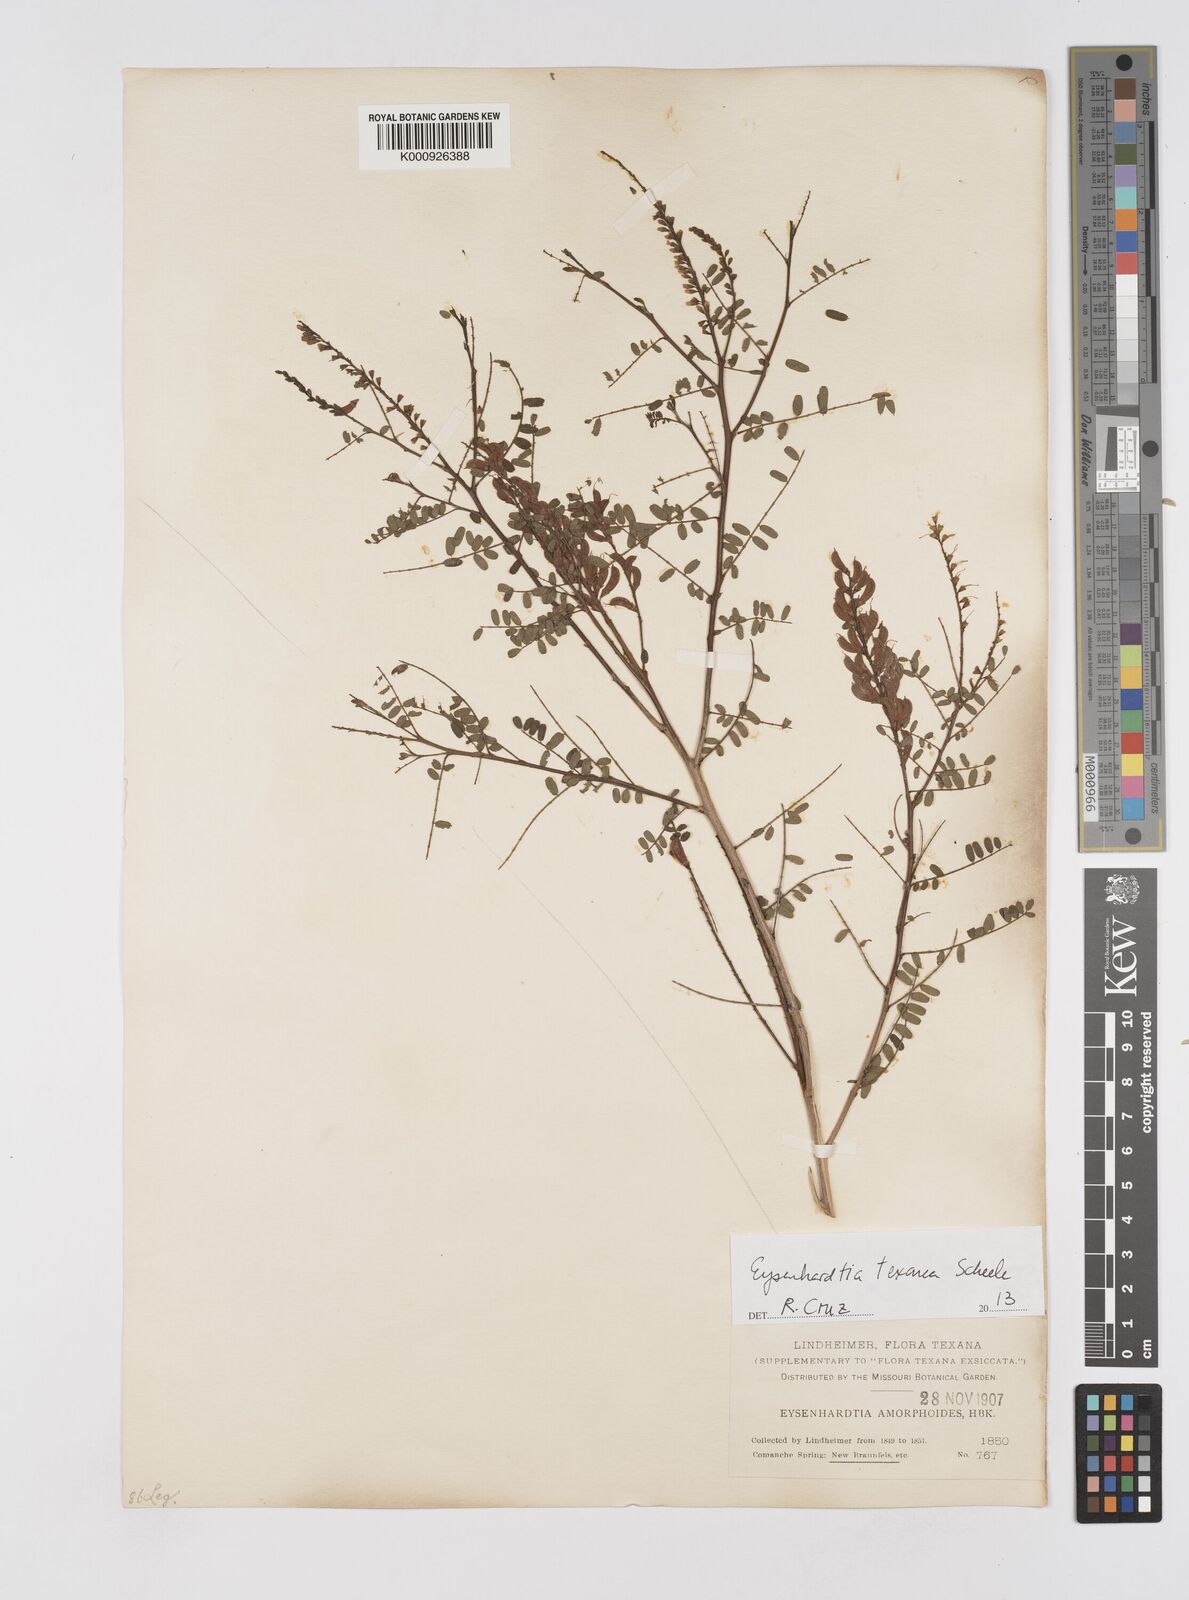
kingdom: Plantae
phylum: Tracheophyta
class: Magnoliopsida
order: Fabales
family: Fabaceae
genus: Eysenhardtia
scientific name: Eysenhardtia texana
